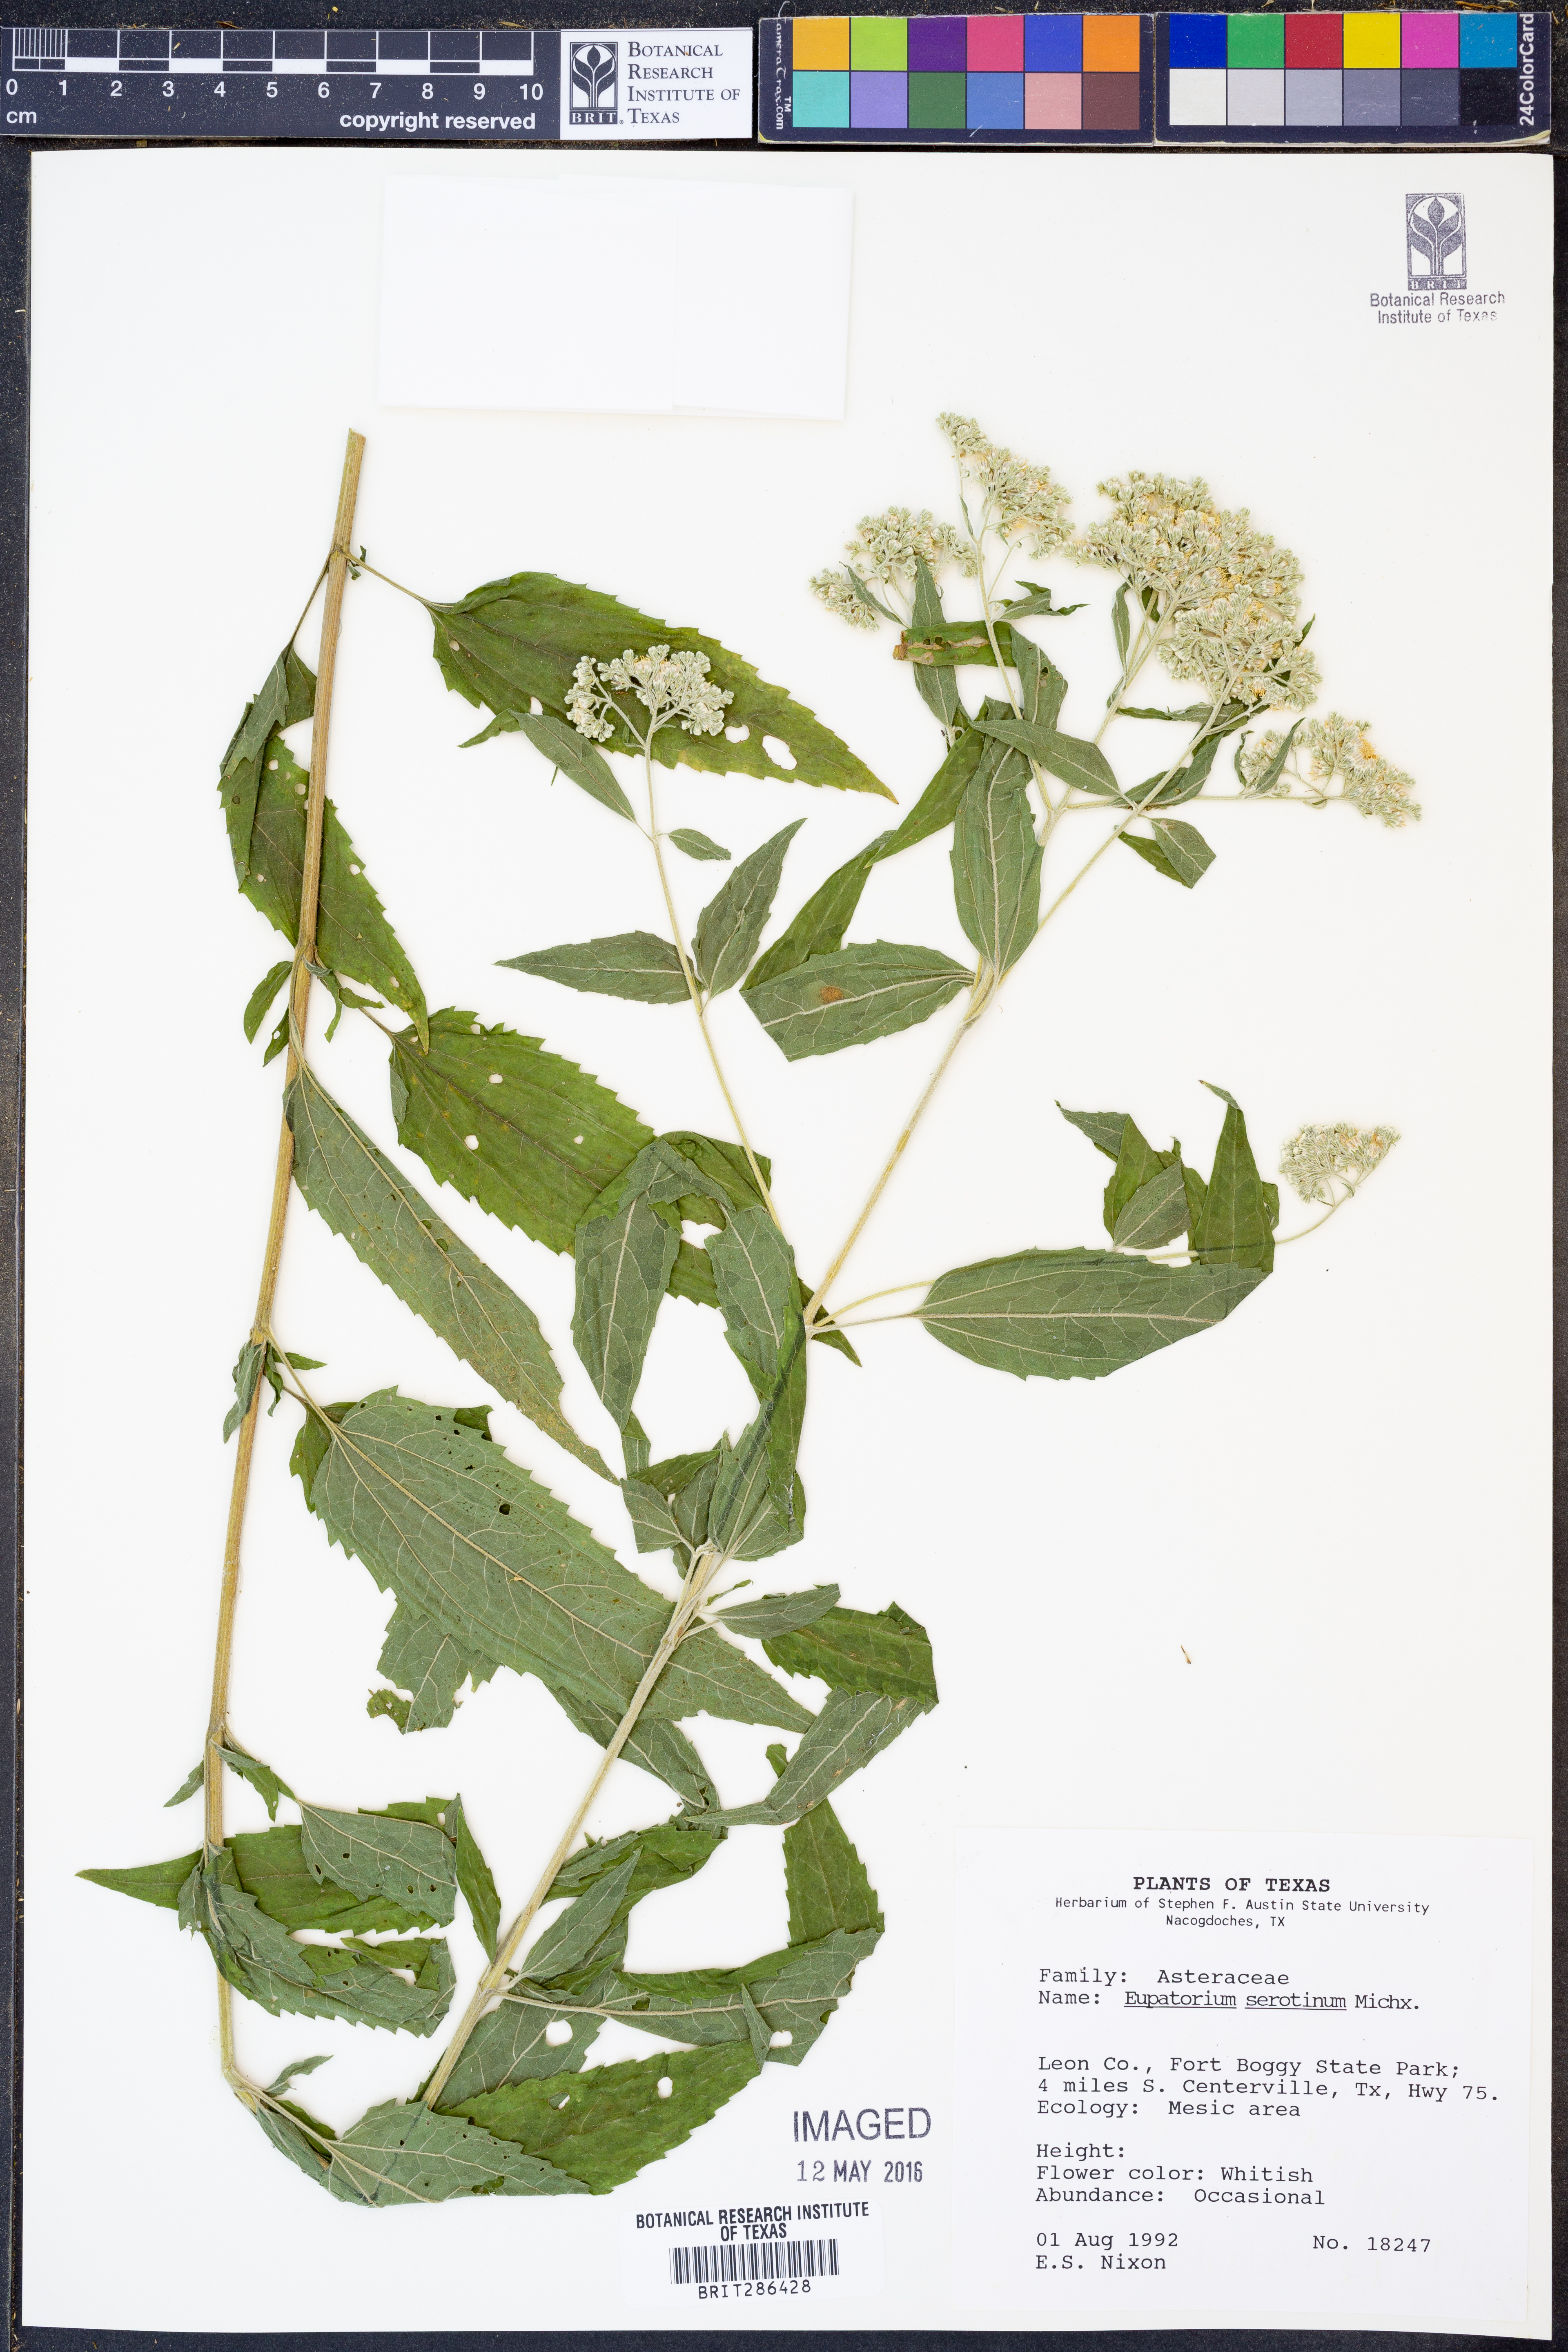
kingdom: Plantae
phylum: Tracheophyta
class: Magnoliopsida
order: Asterales
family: Asteraceae
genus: Eupatorium
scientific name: Eupatorium serotinum
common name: Late boneset
